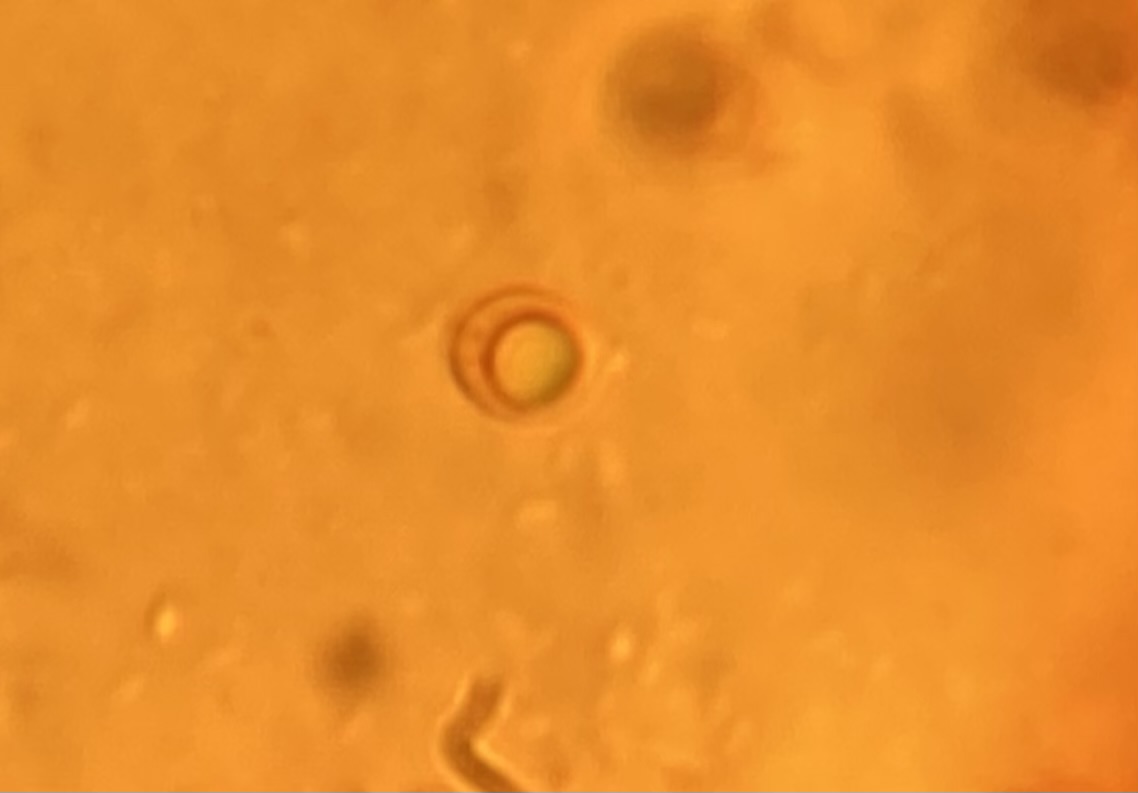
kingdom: Fungi
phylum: Basidiomycota
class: Agaricomycetes
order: Agaricales
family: Niaceae
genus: Merismodes
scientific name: Merismodes
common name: mjødurt-læderskål
